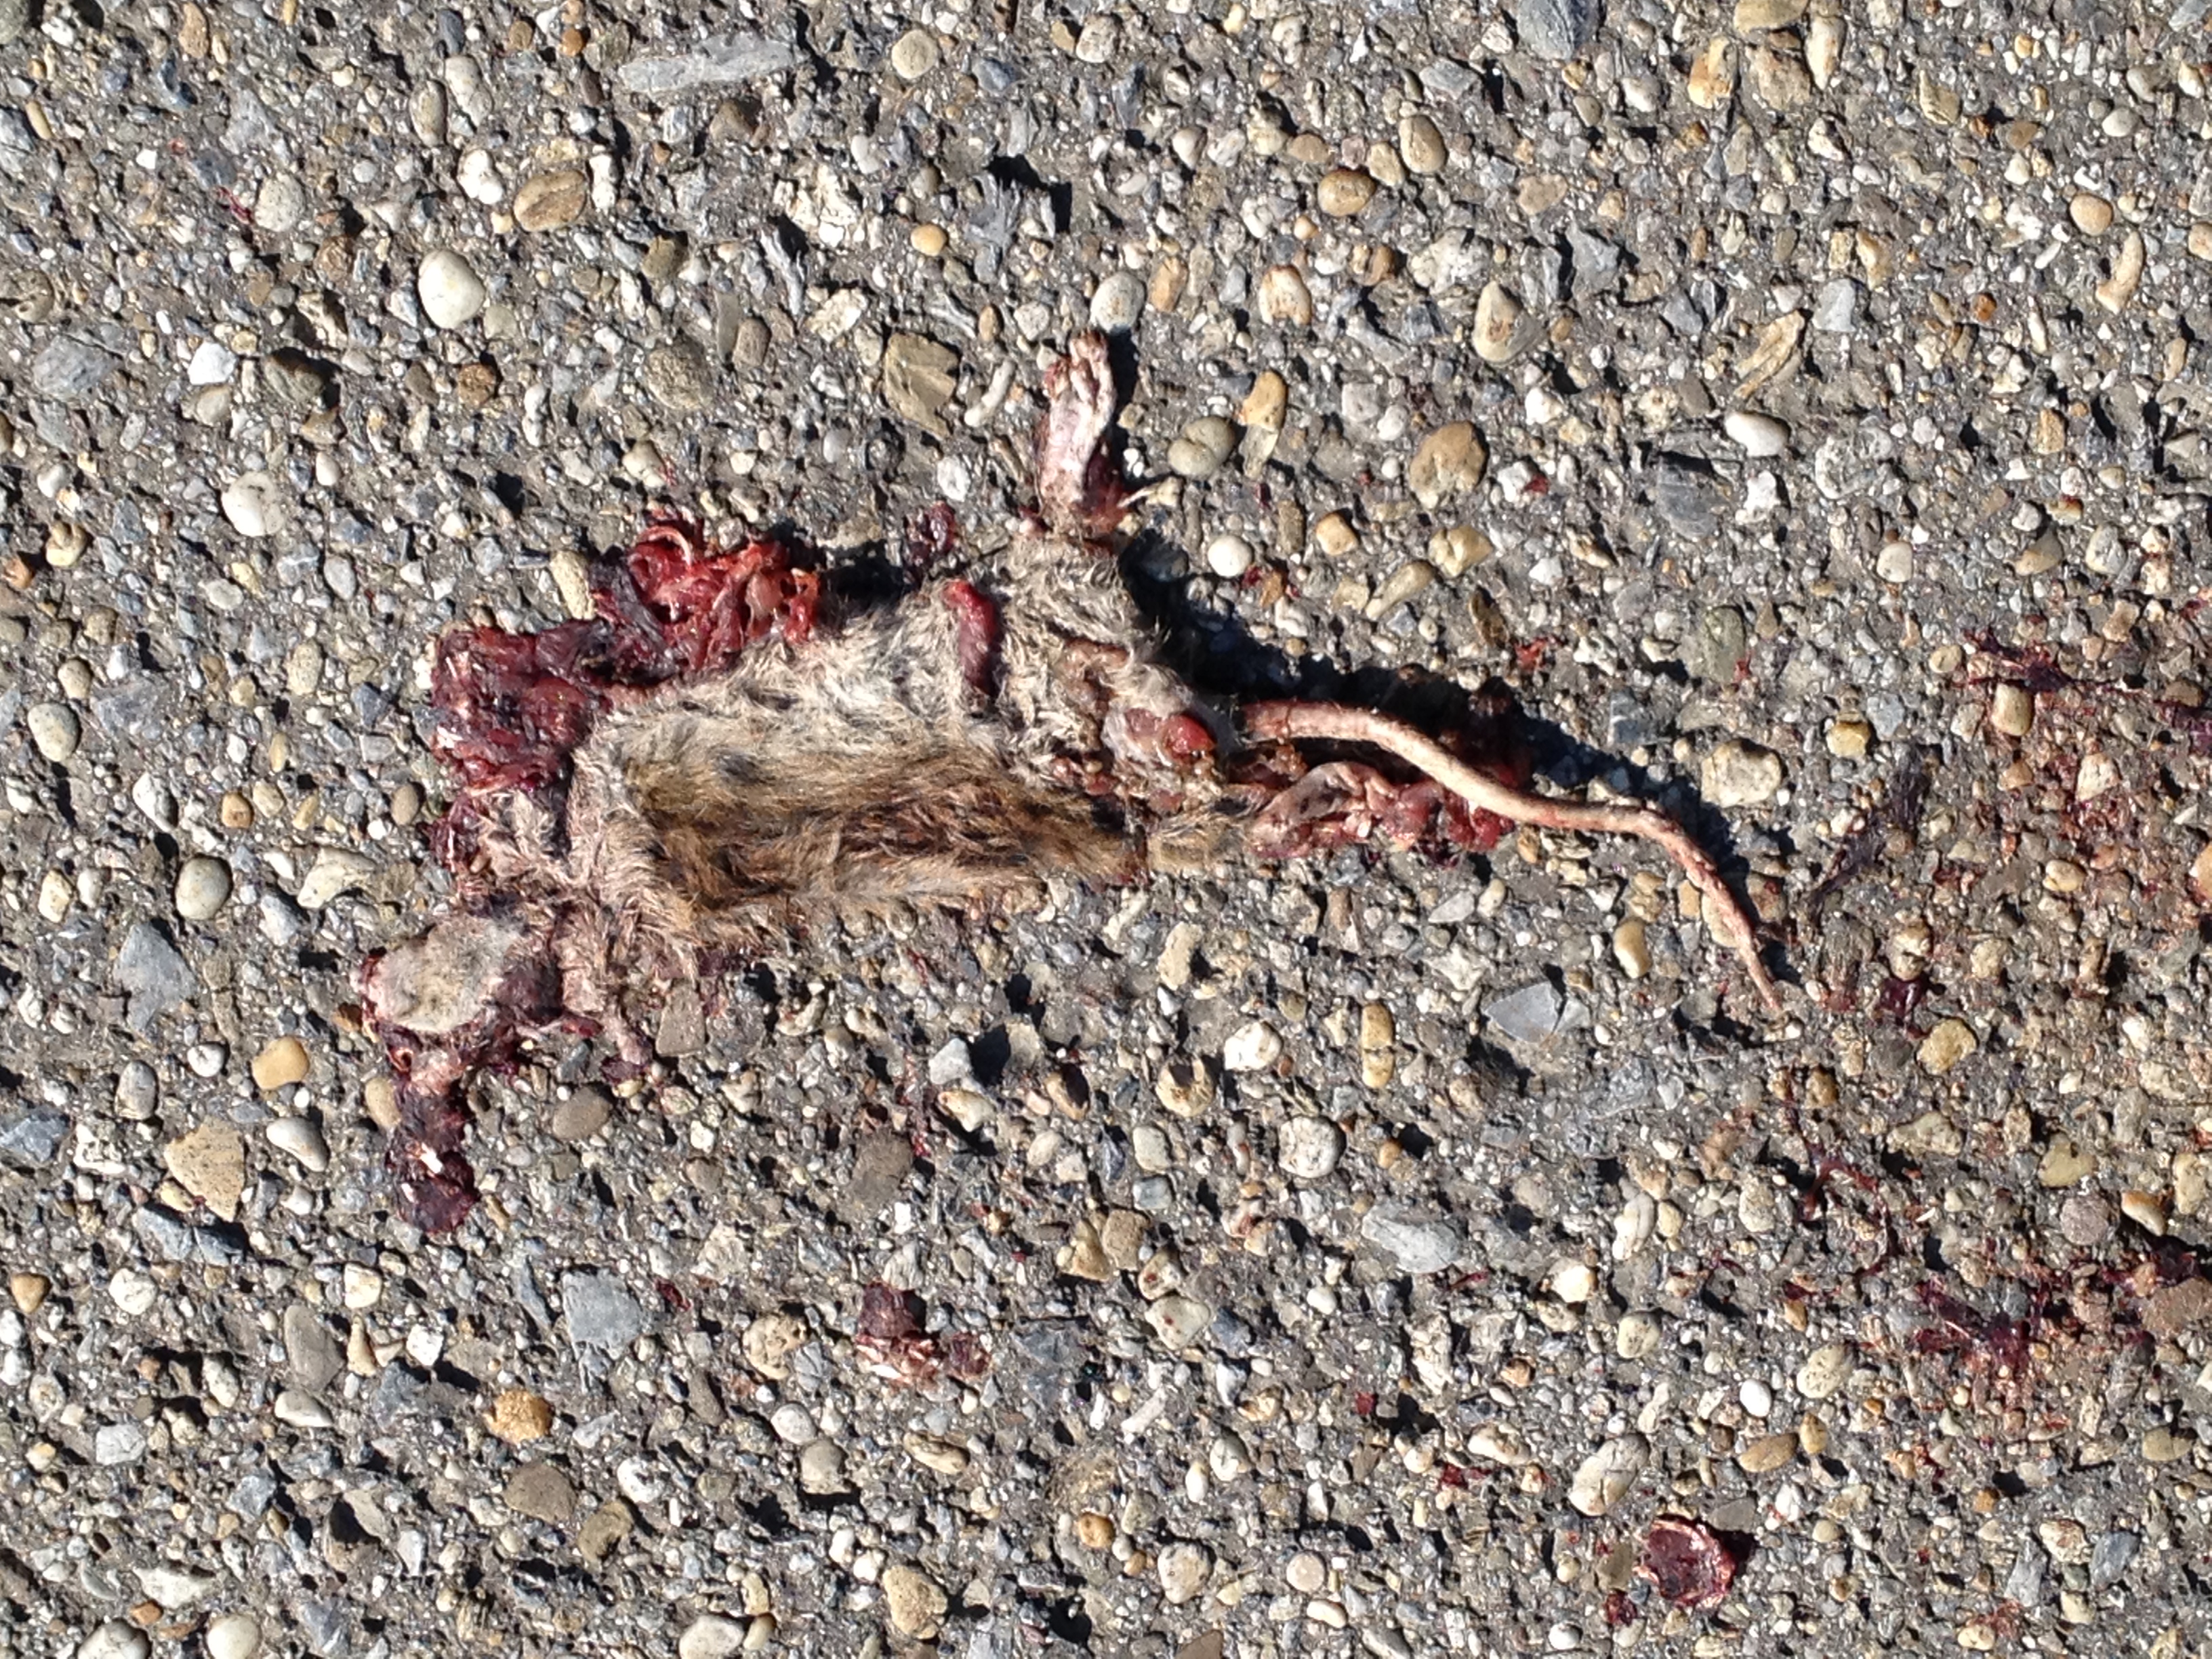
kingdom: Animalia
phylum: Chordata
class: Mammalia
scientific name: Mammalia
